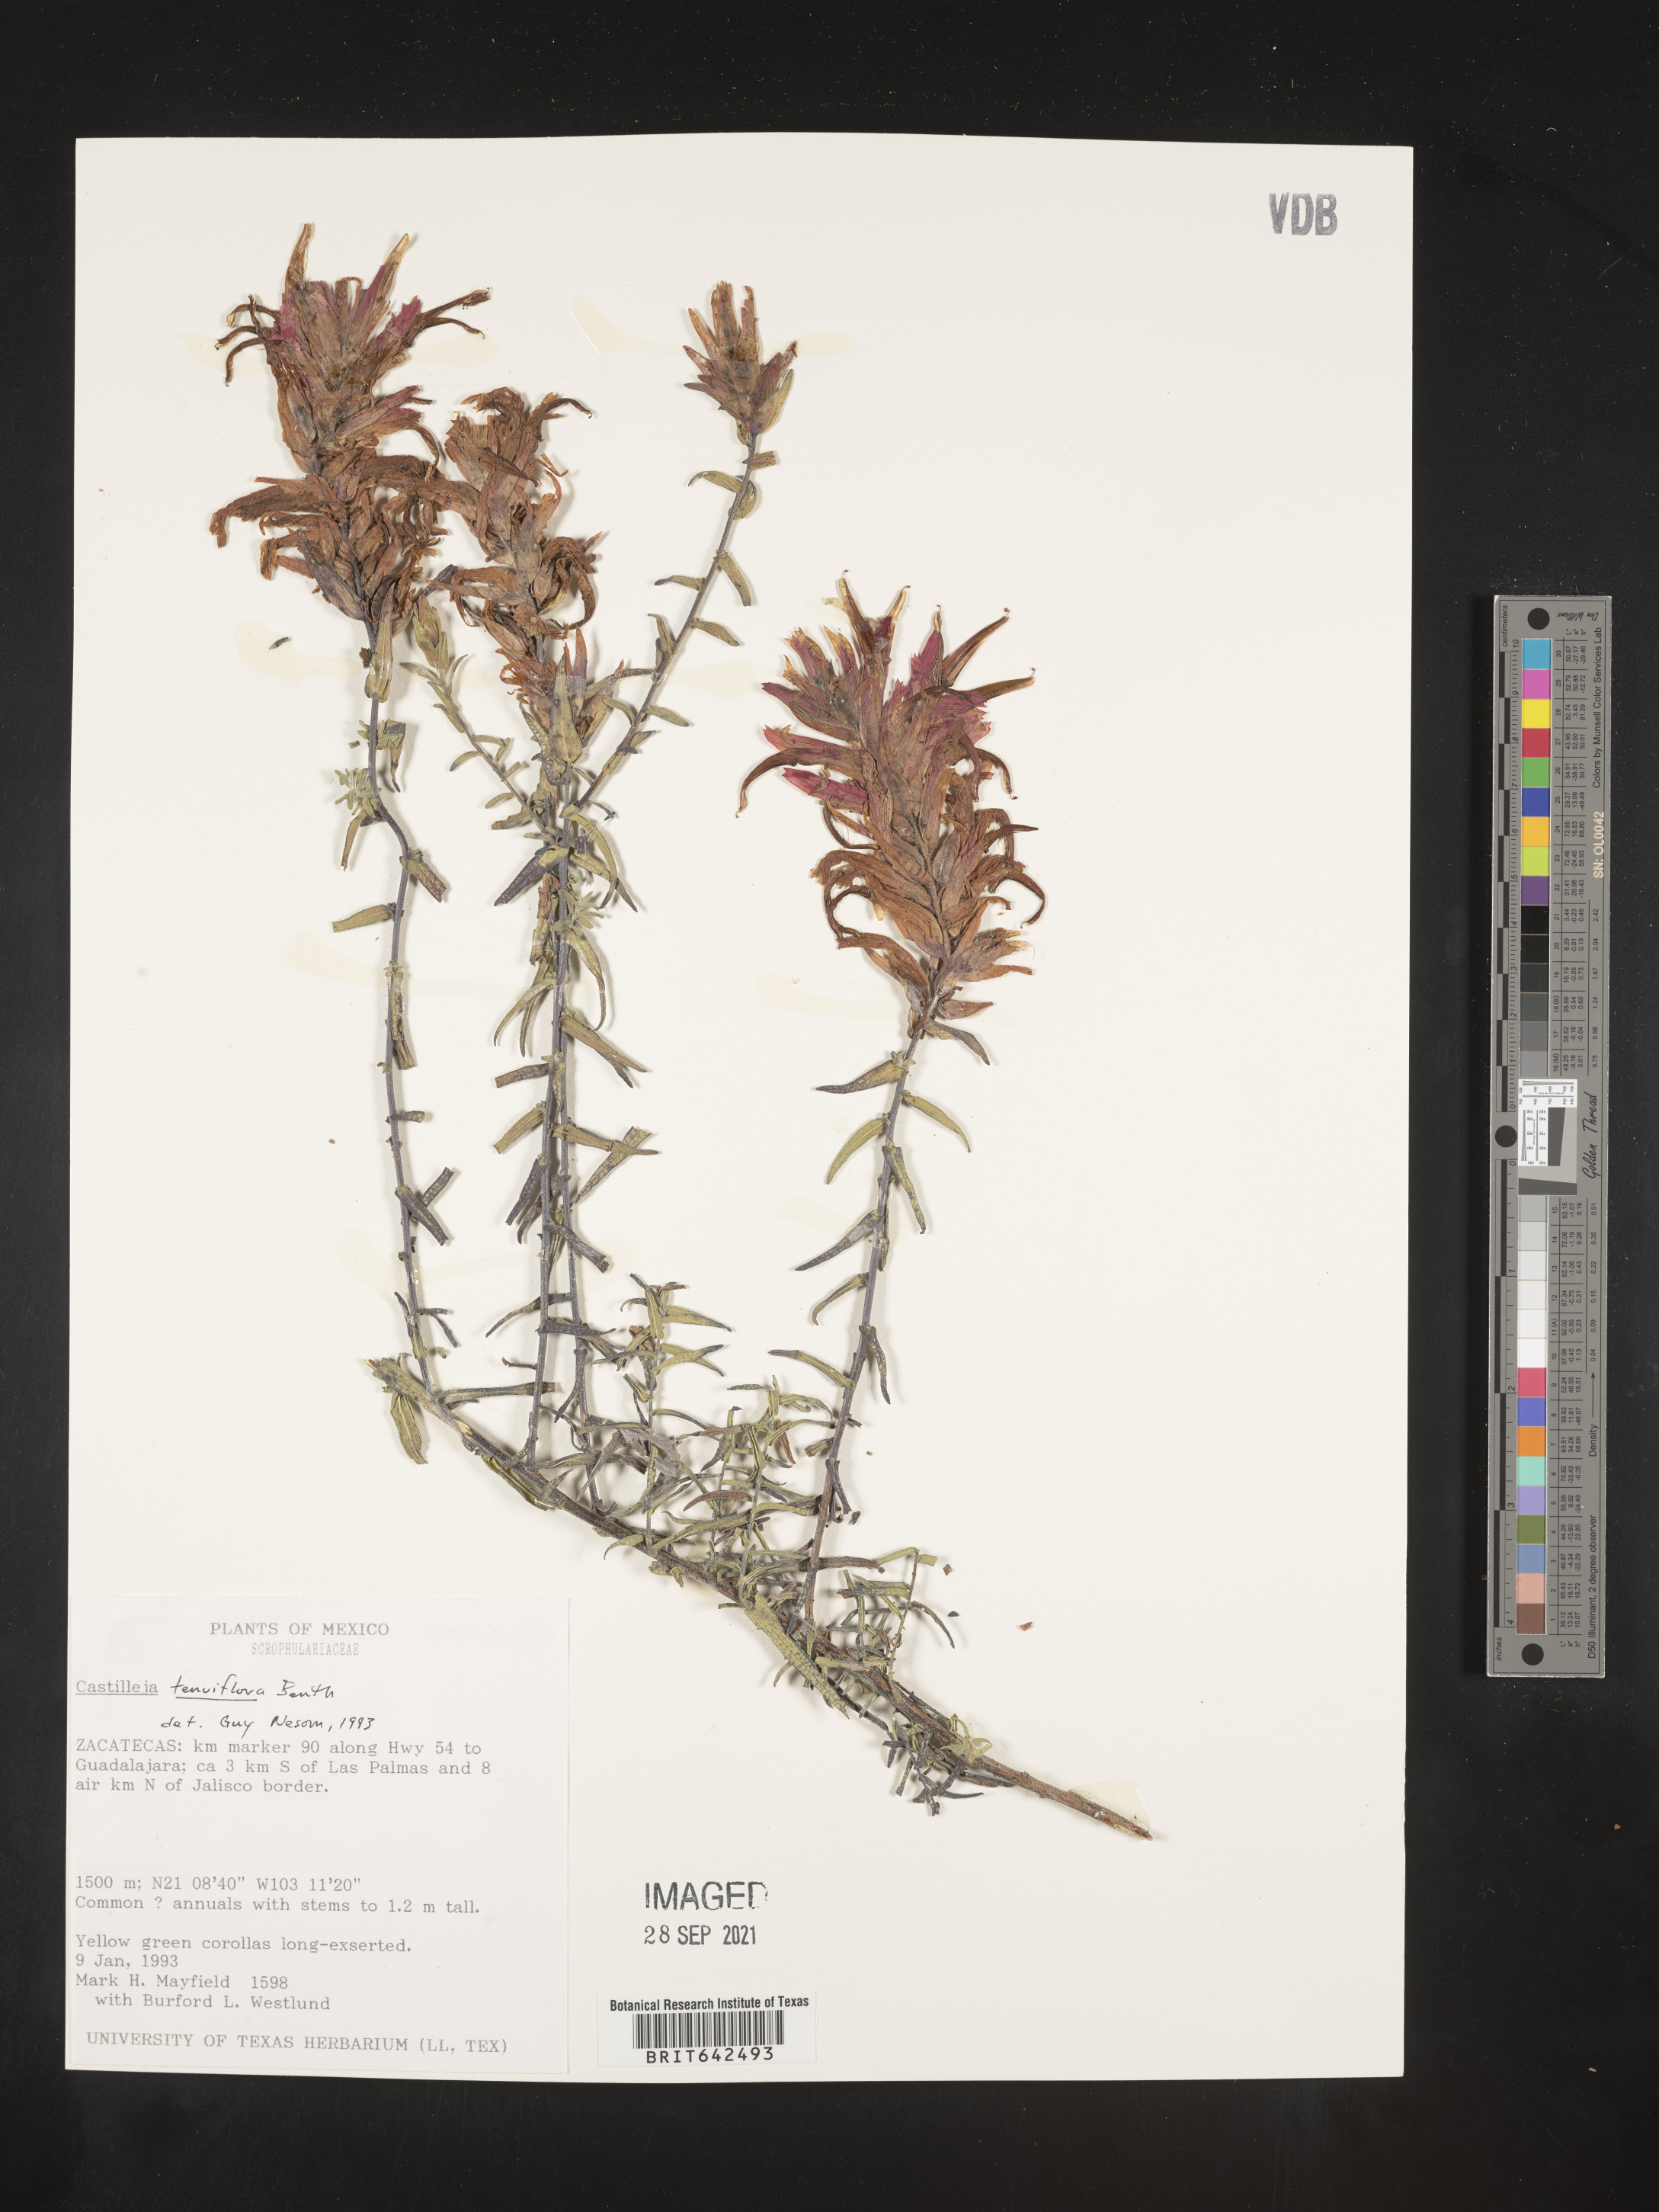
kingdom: Plantae
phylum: Tracheophyta
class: Magnoliopsida
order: Lamiales
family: Orobanchaceae
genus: Castilleja
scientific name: Castilleja
